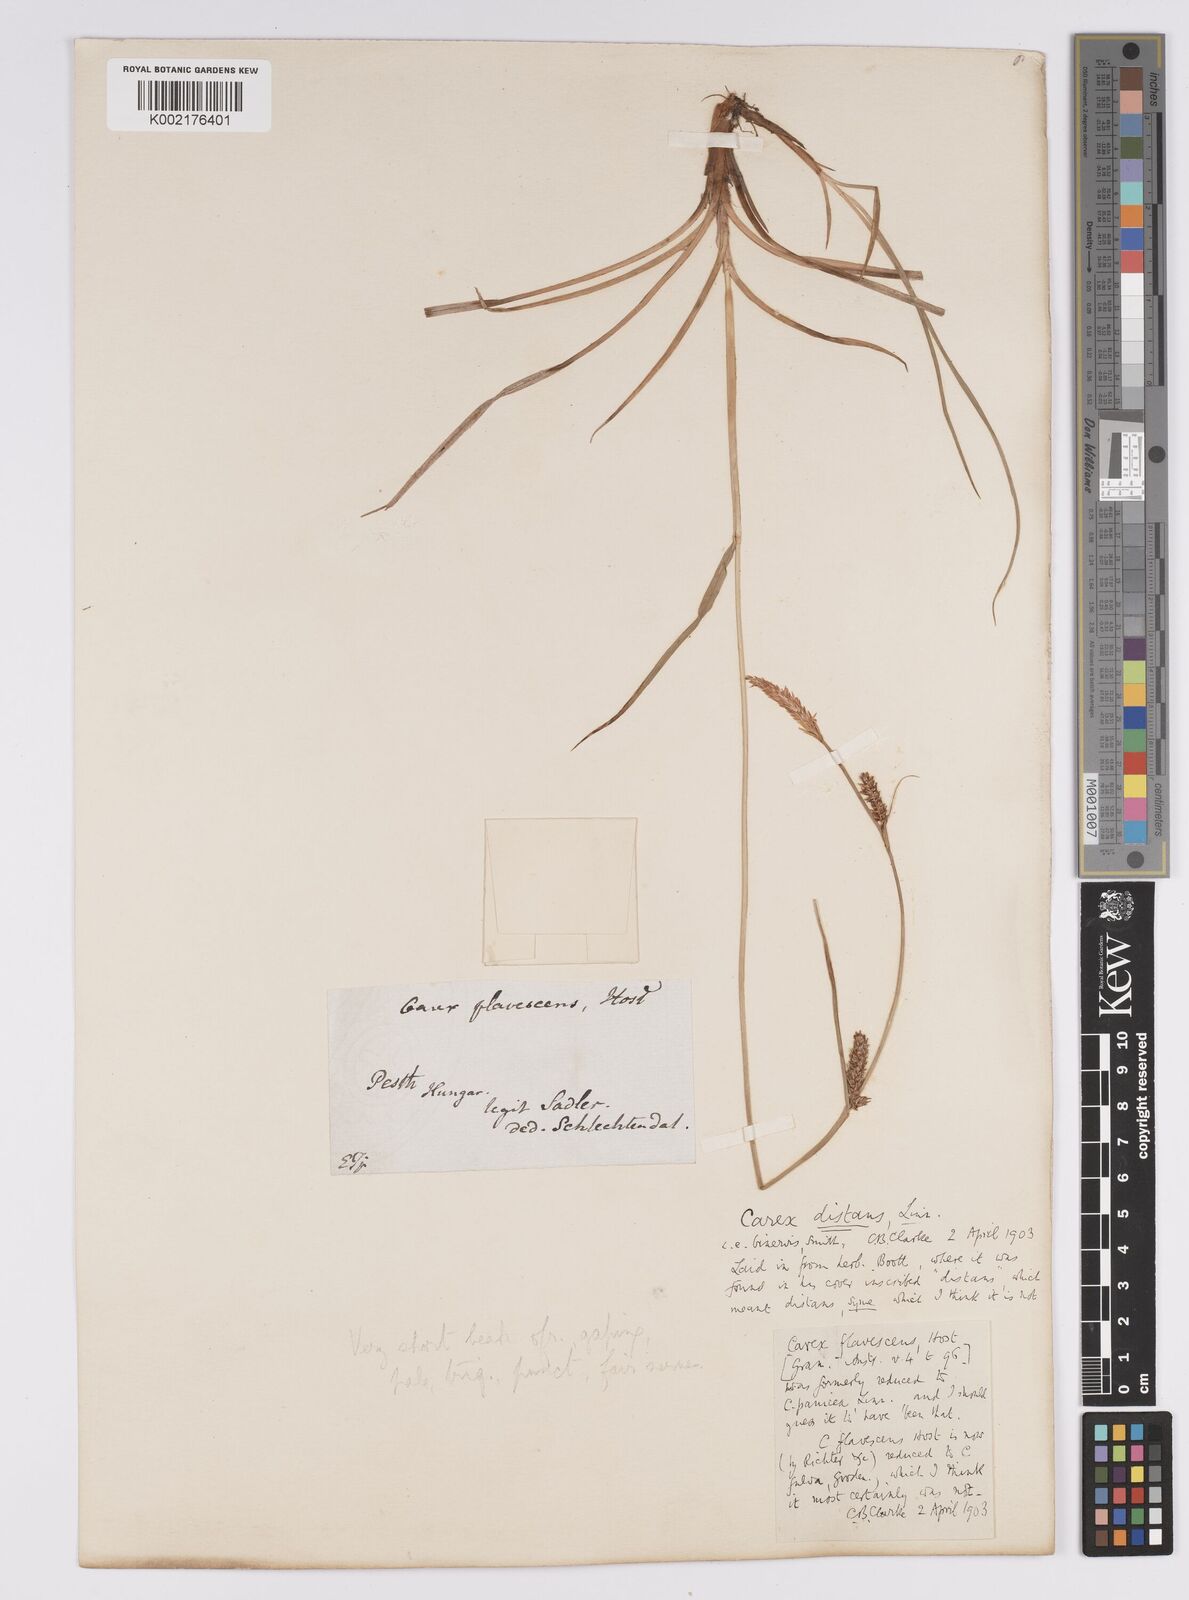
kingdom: Plantae
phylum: Tracheophyta
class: Liliopsida
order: Poales
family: Cyperaceae
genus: Carex
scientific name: Carex distans
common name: Distant sedge
